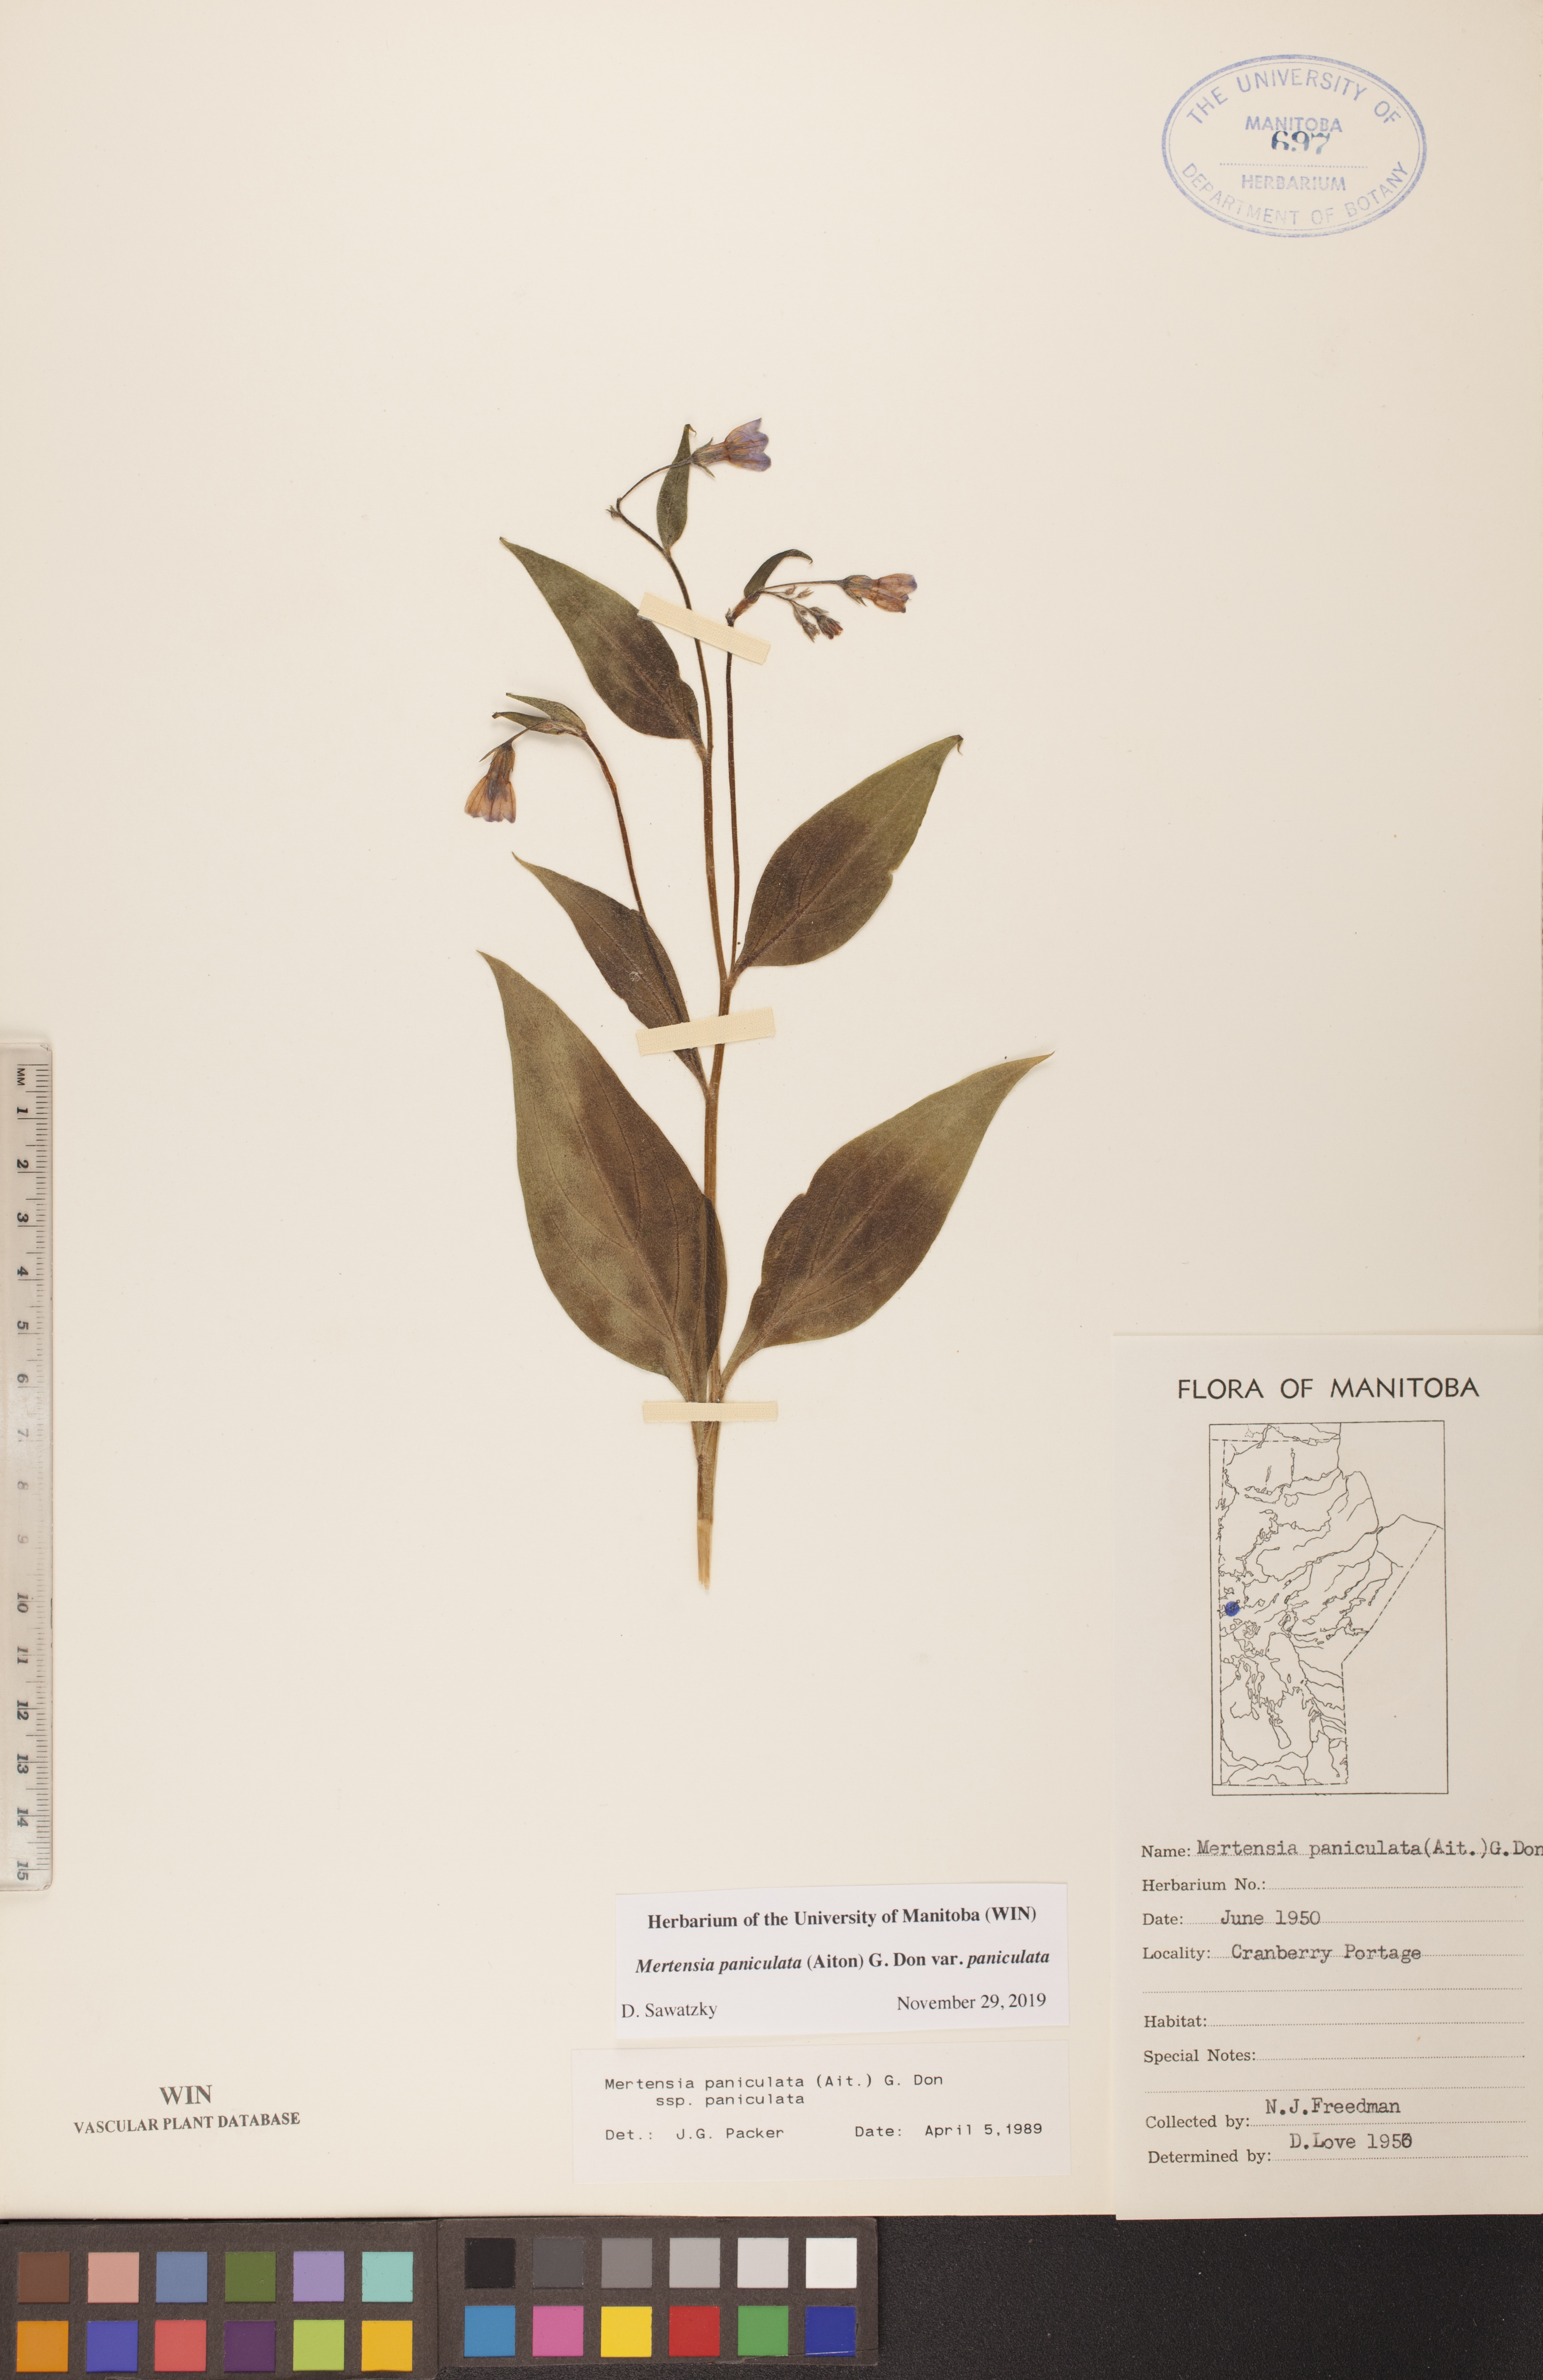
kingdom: Plantae
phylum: Tracheophyta
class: Magnoliopsida
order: Boraginales
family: Boraginaceae
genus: Mertensia
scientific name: Mertensia paniculata
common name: Panicled bluebells
